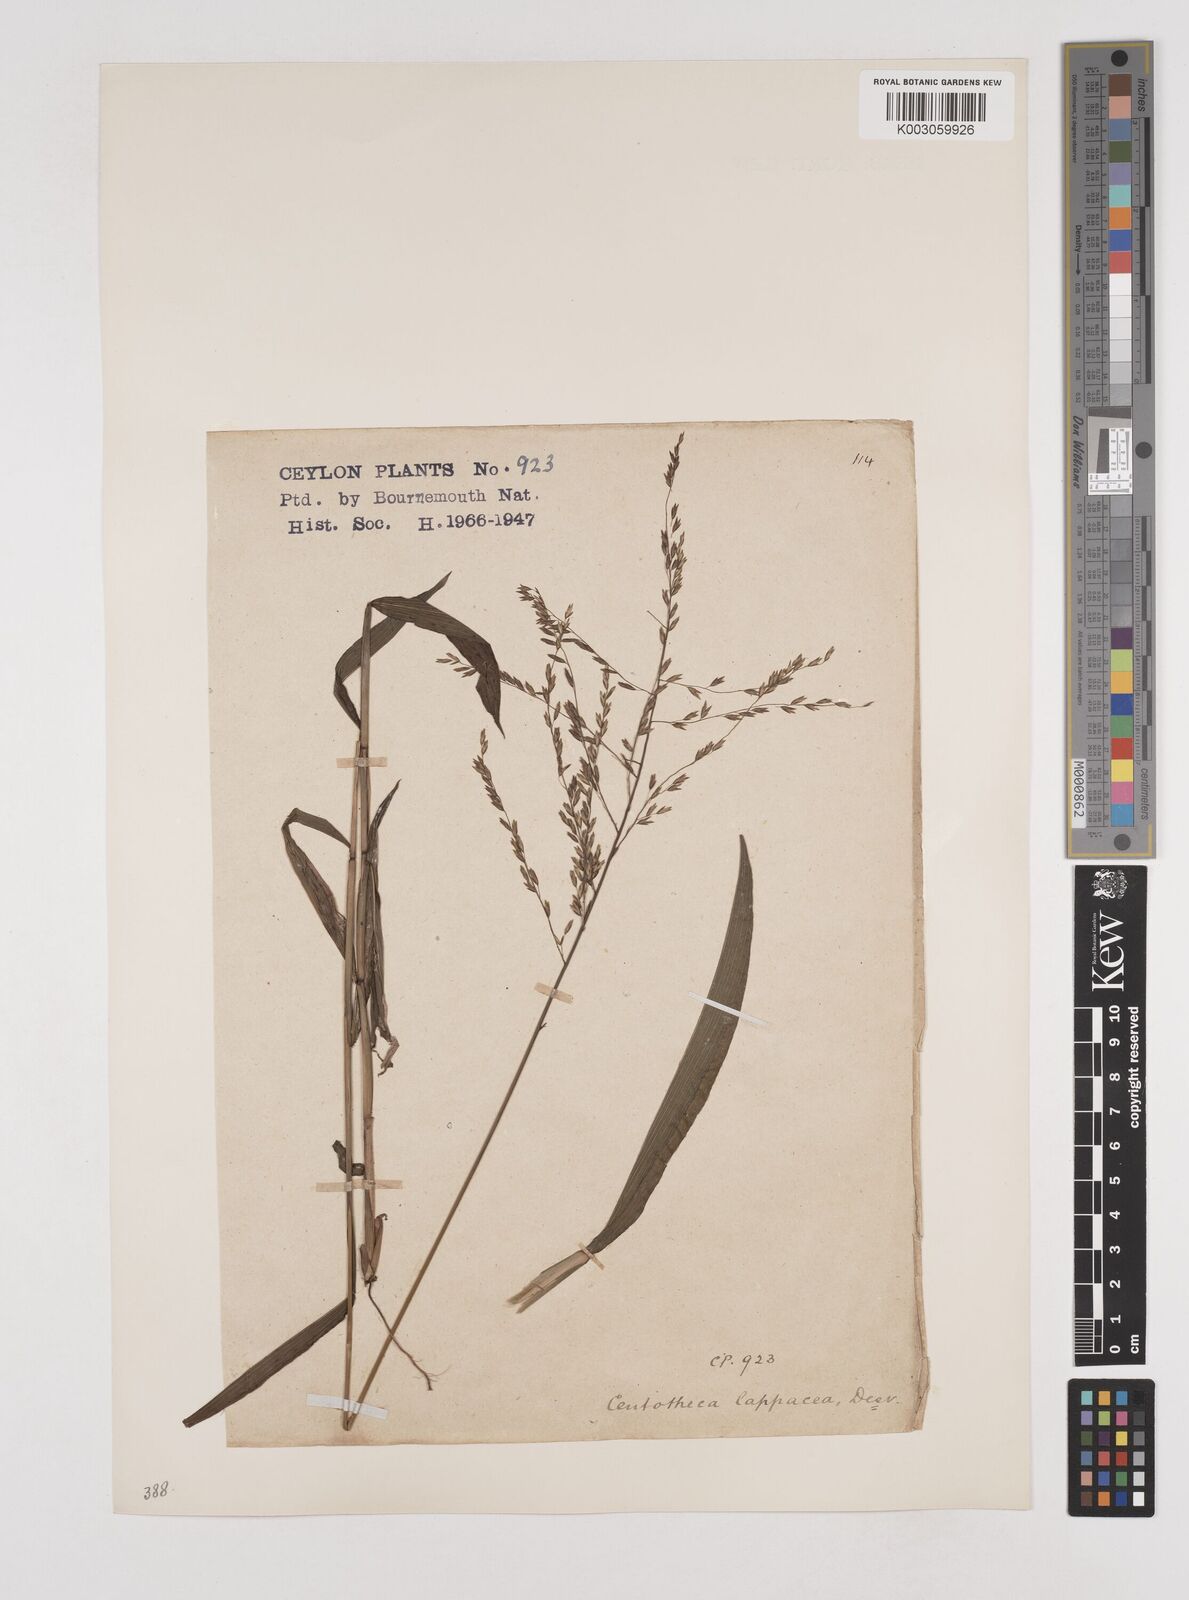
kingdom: Plantae
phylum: Tracheophyta
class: Liliopsida
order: Poales
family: Poaceae
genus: Centotheca
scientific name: Centotheca lappacea
